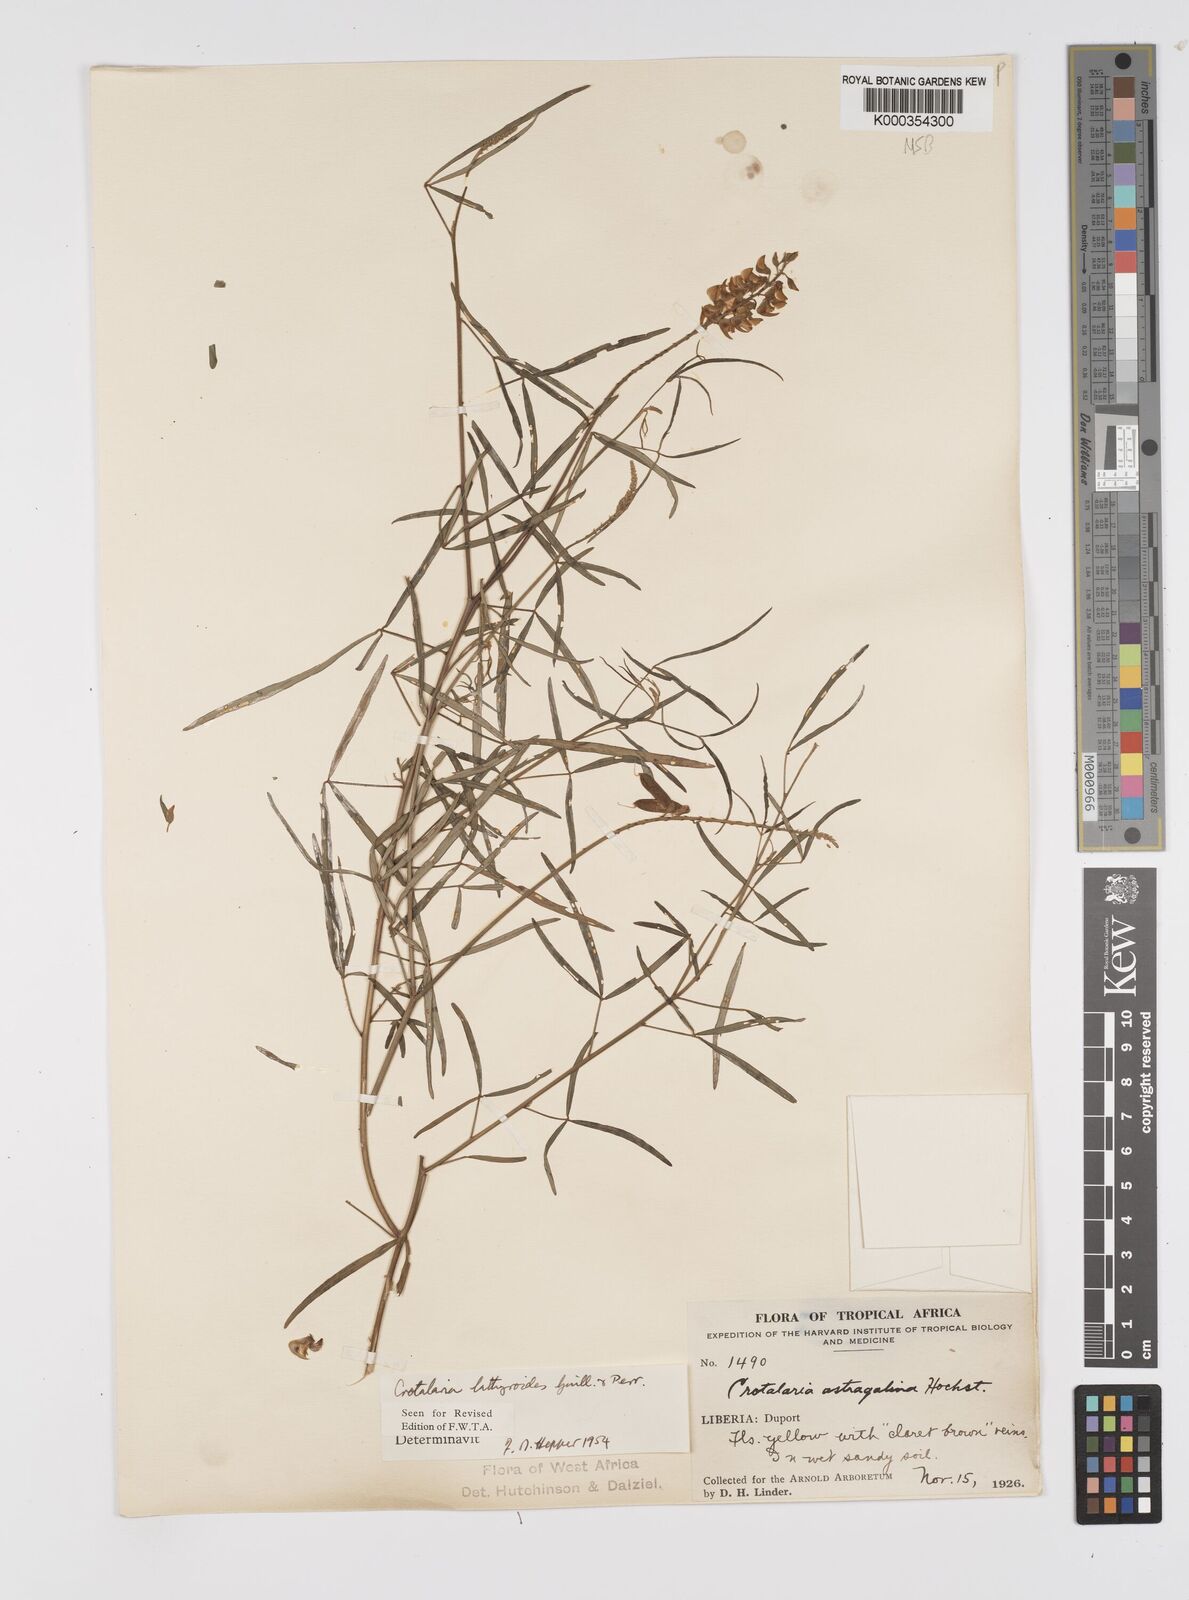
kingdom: Plantae
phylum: Tracheophyta
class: Magnoliopsida
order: Fabales
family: Fabaceae
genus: Crotalaria
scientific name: Crotalaria lathyroides
